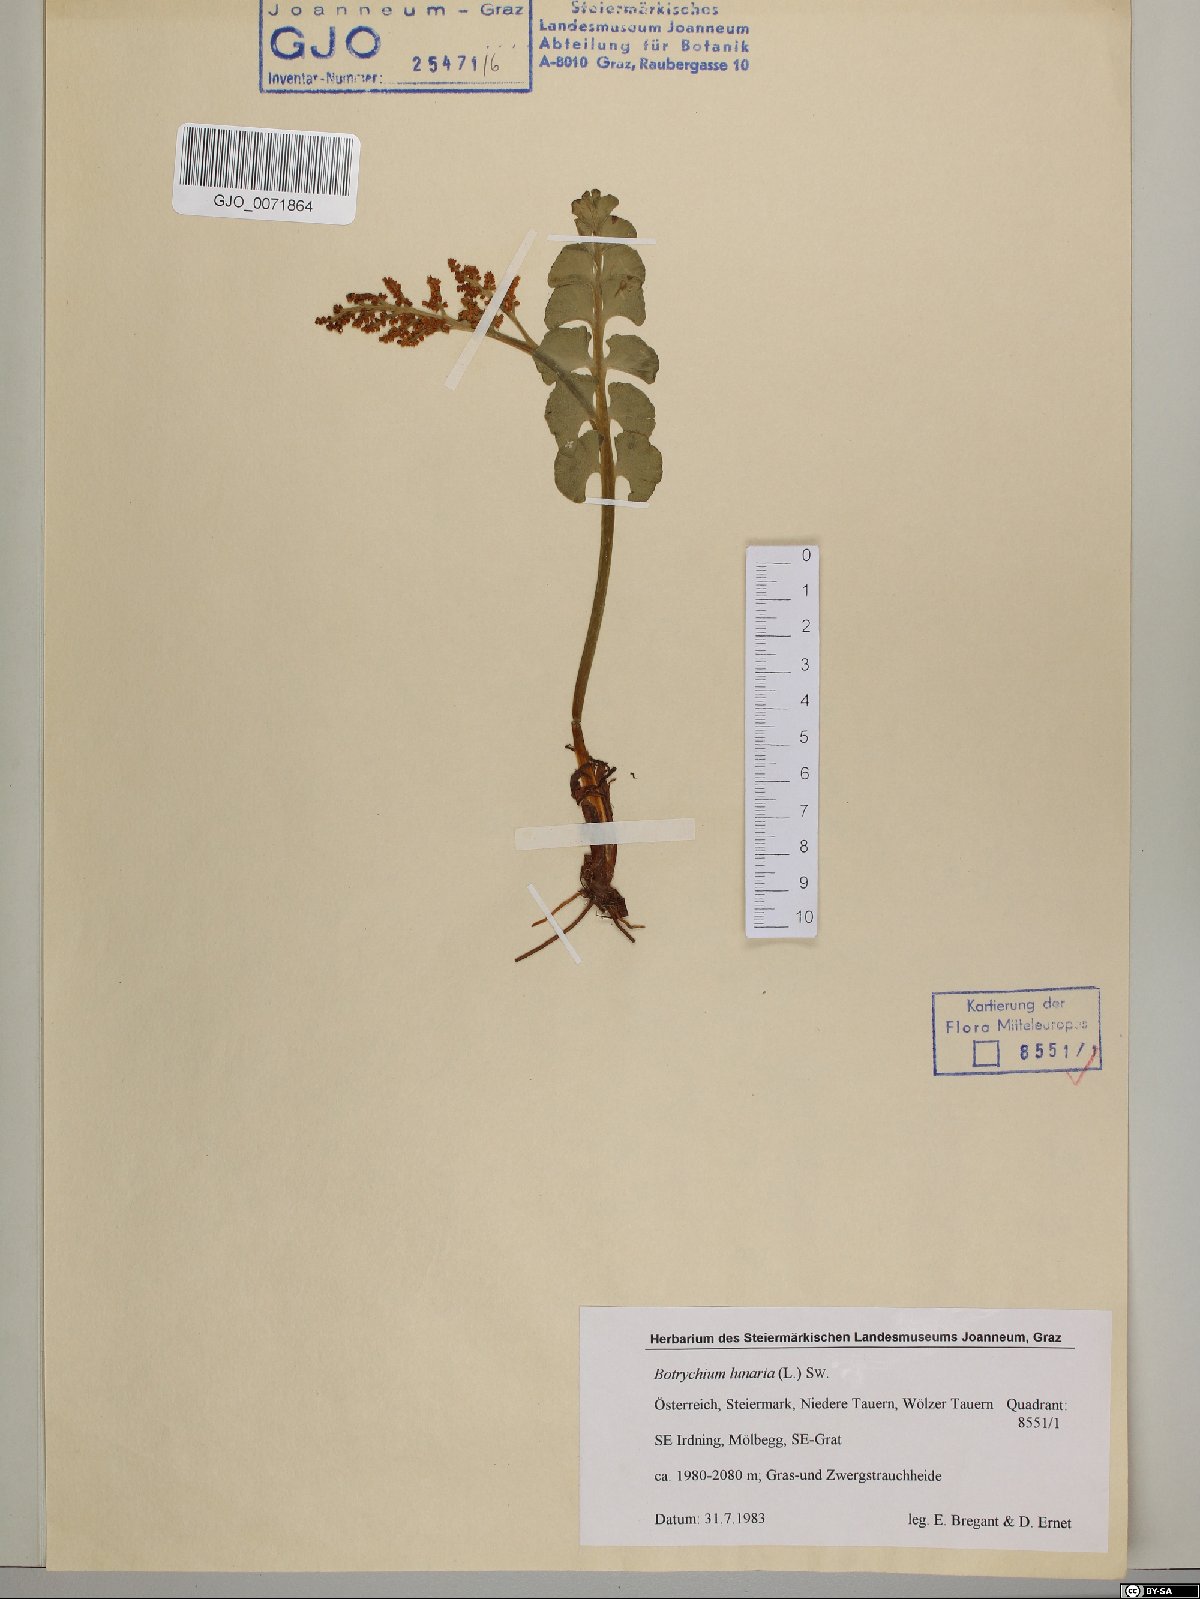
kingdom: Plantae
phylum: Tracheophyta
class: Polypodiopsida
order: Ophioglossales
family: Ophioglossaceae
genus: Botrychium
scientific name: Botrychium lunaria
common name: Moonwort
